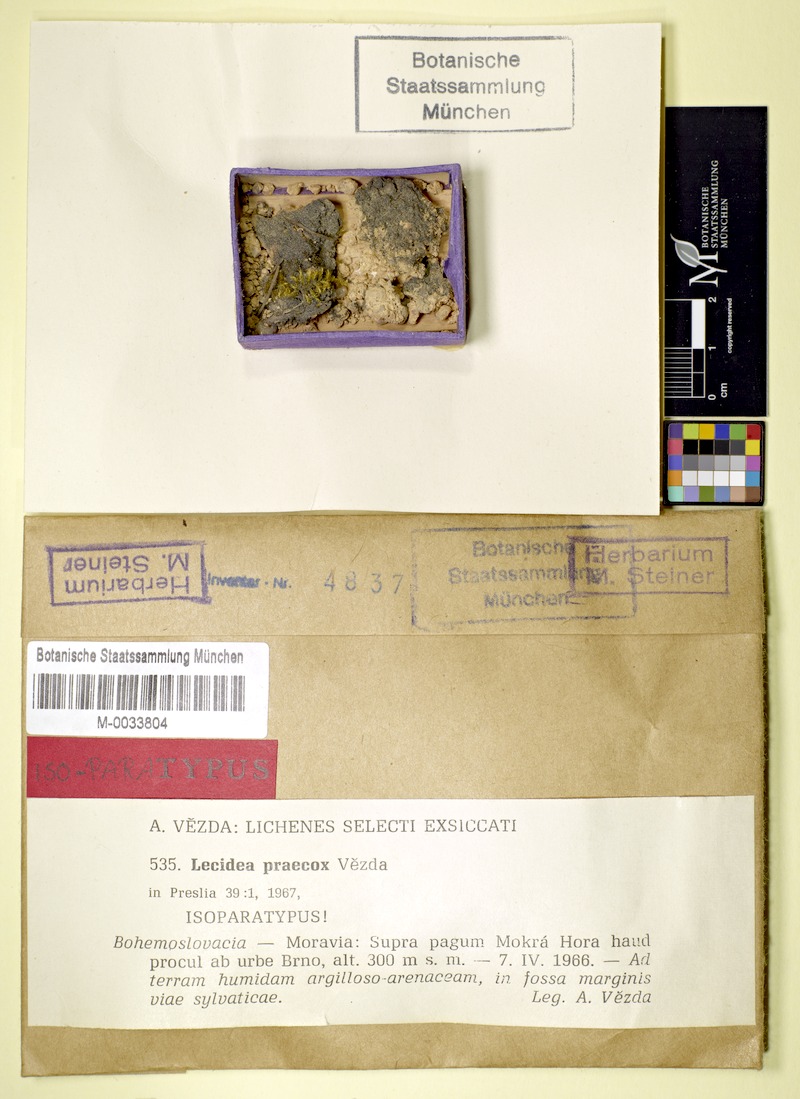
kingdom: Fungi
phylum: Ascomycota
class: Lecanoromycetes
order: Lecanorales
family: Aphanopsidaceae
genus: Aphanopsis
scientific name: Aphanopsis coenosa
